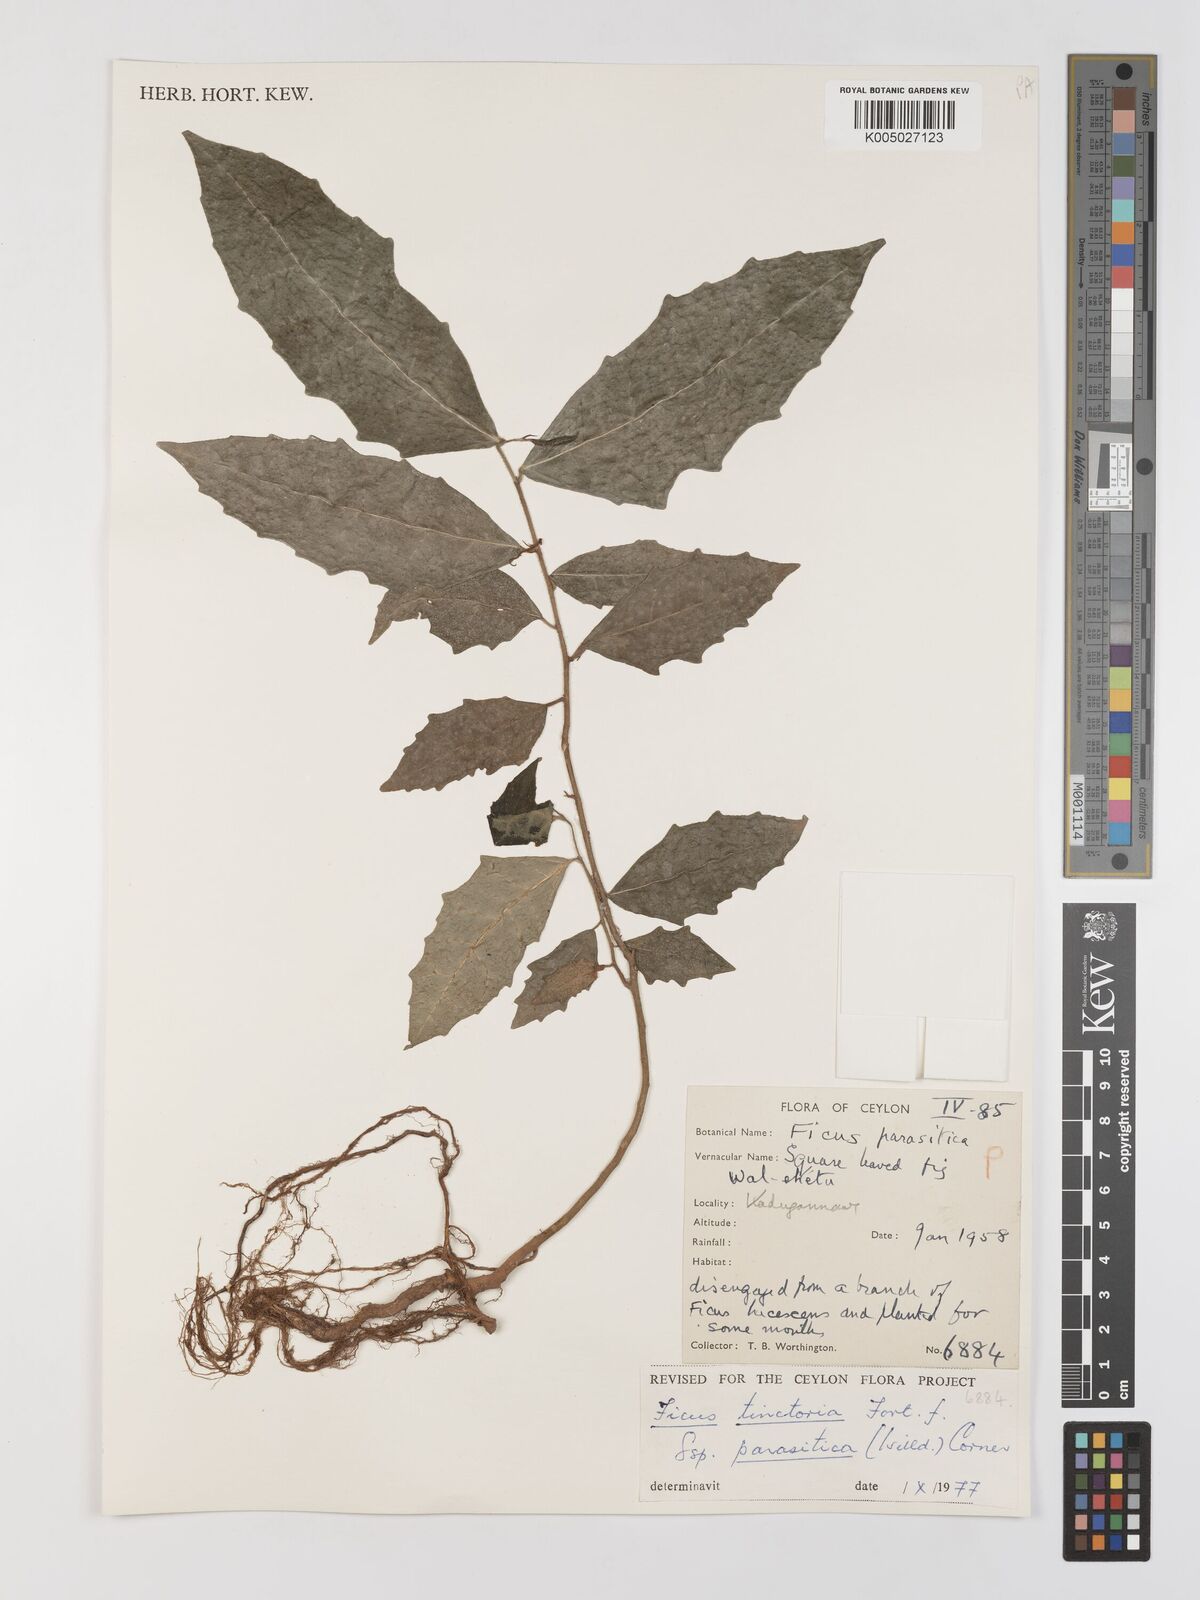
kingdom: Plantae
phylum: Tracheophyta
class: Magnoliopsida
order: Rosales
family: Moraceae
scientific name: Moraceae
